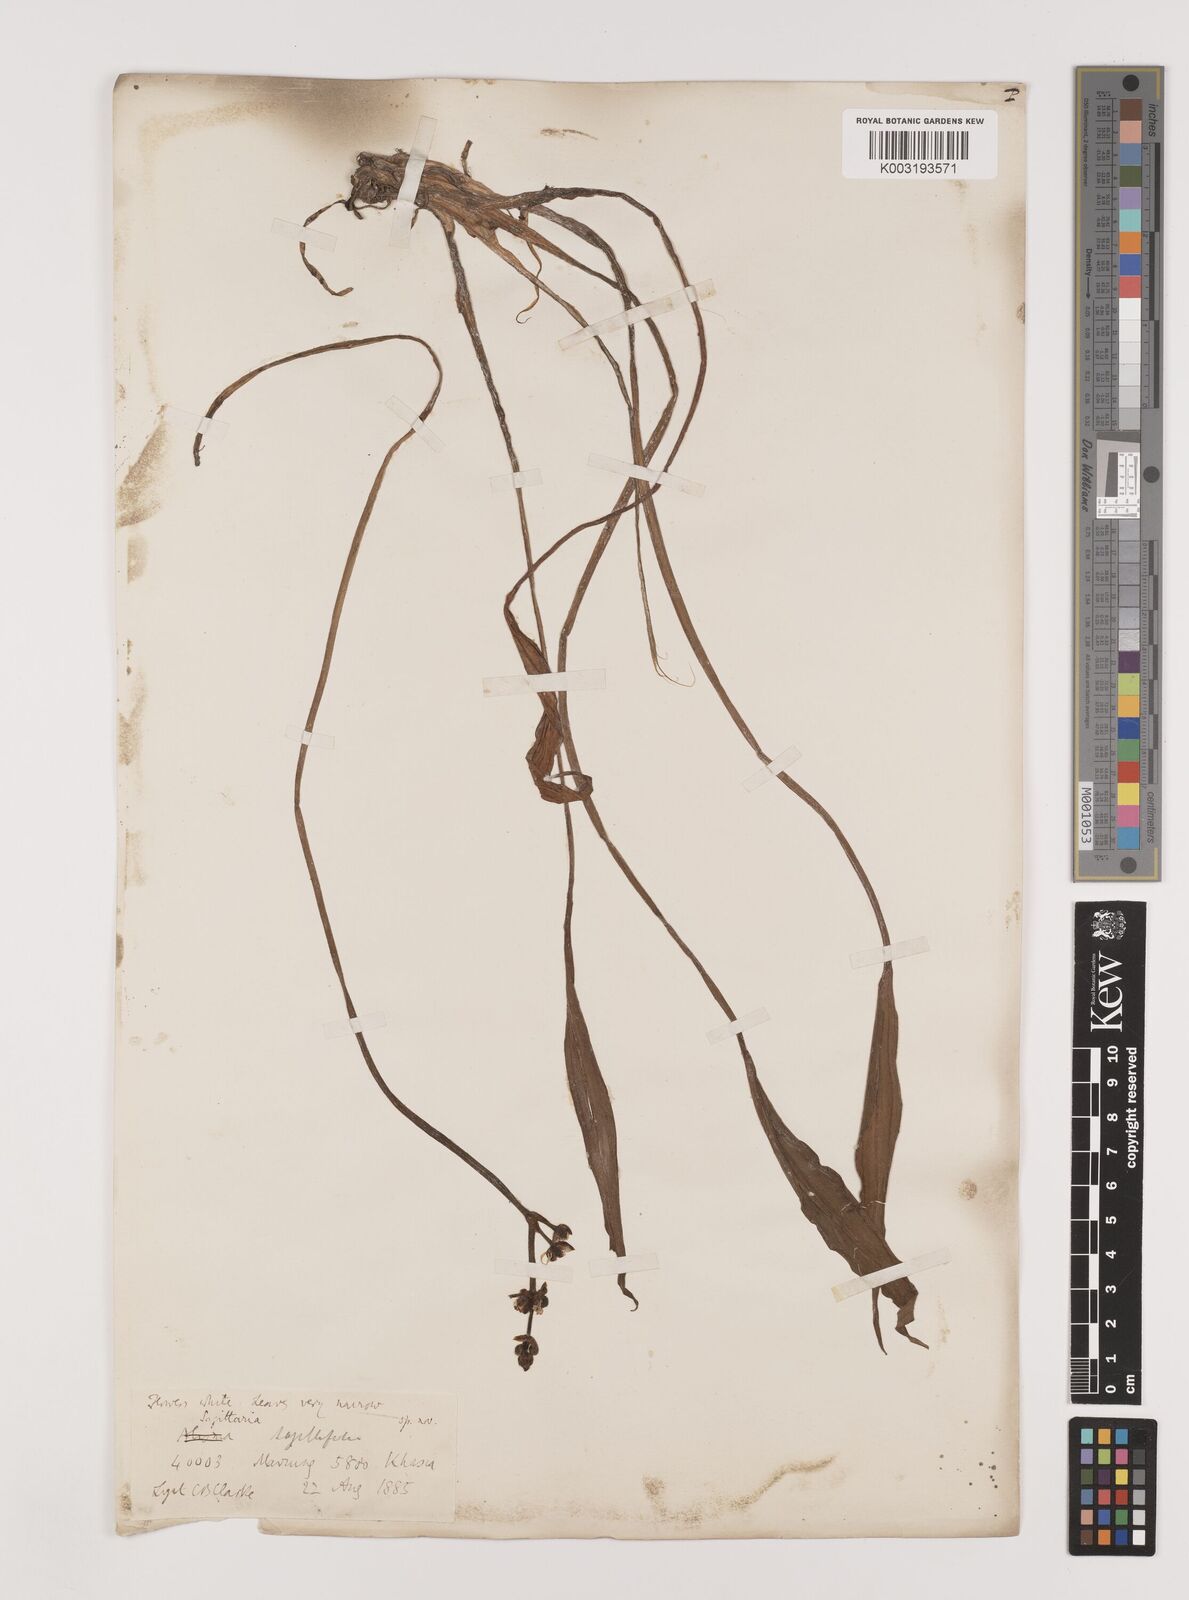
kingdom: Plantae
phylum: Tracheophyta
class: Liliopsida
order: Alismatales
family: Alismataceae
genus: Sagittaria
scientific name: Sagittaria sagittifolia
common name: Arrowhead
